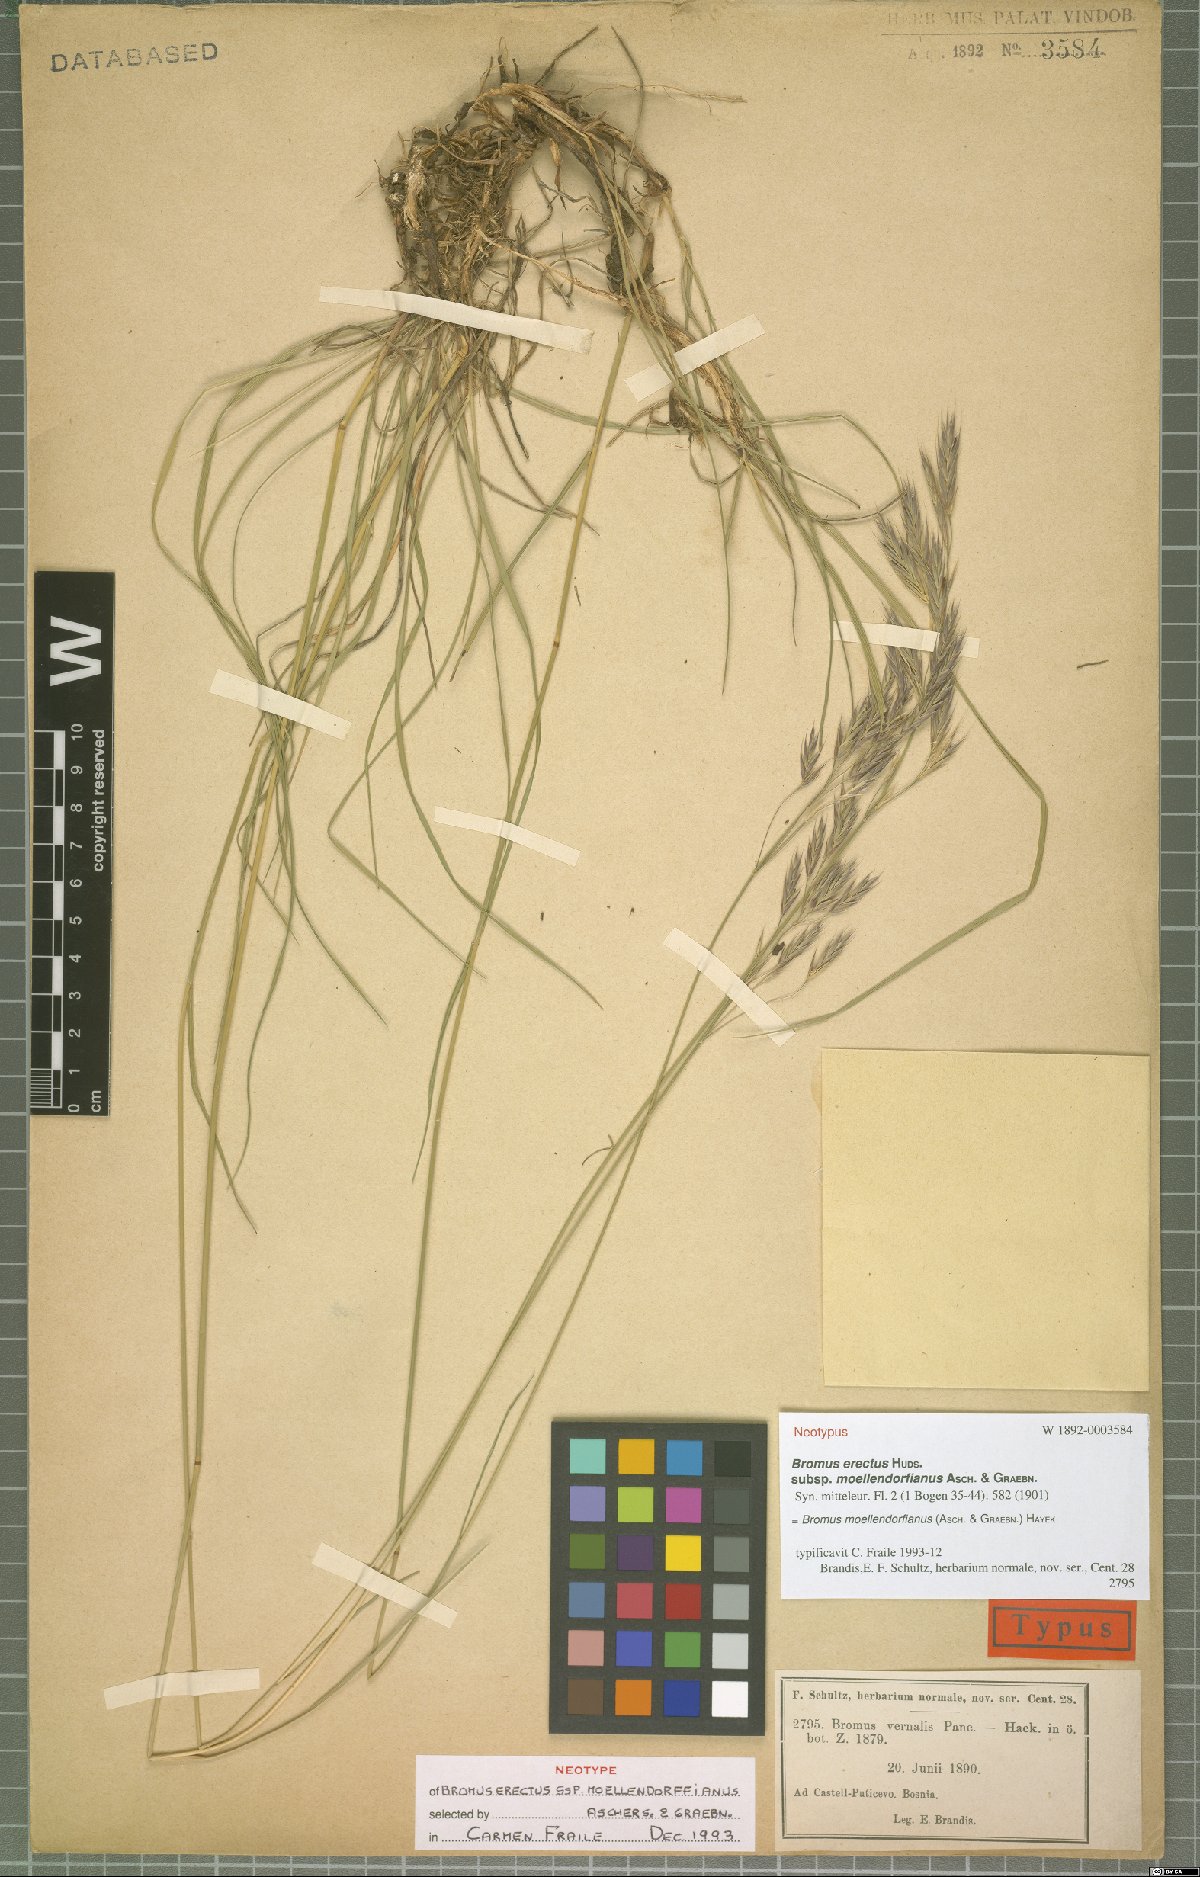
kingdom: Plantae
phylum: Tracheophyta
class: Liliopsida
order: Poales
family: Poaceae
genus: Bromus
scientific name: Bromus moellendorffianus
